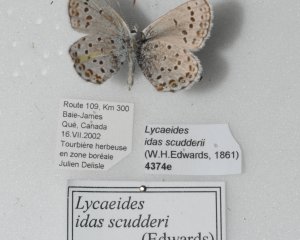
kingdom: Animalia
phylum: Arthropoda
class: Insecta
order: Lepidoptera
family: Lycaenidae
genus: Lycaeides
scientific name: Lycaeides idas
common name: Northern Blue
